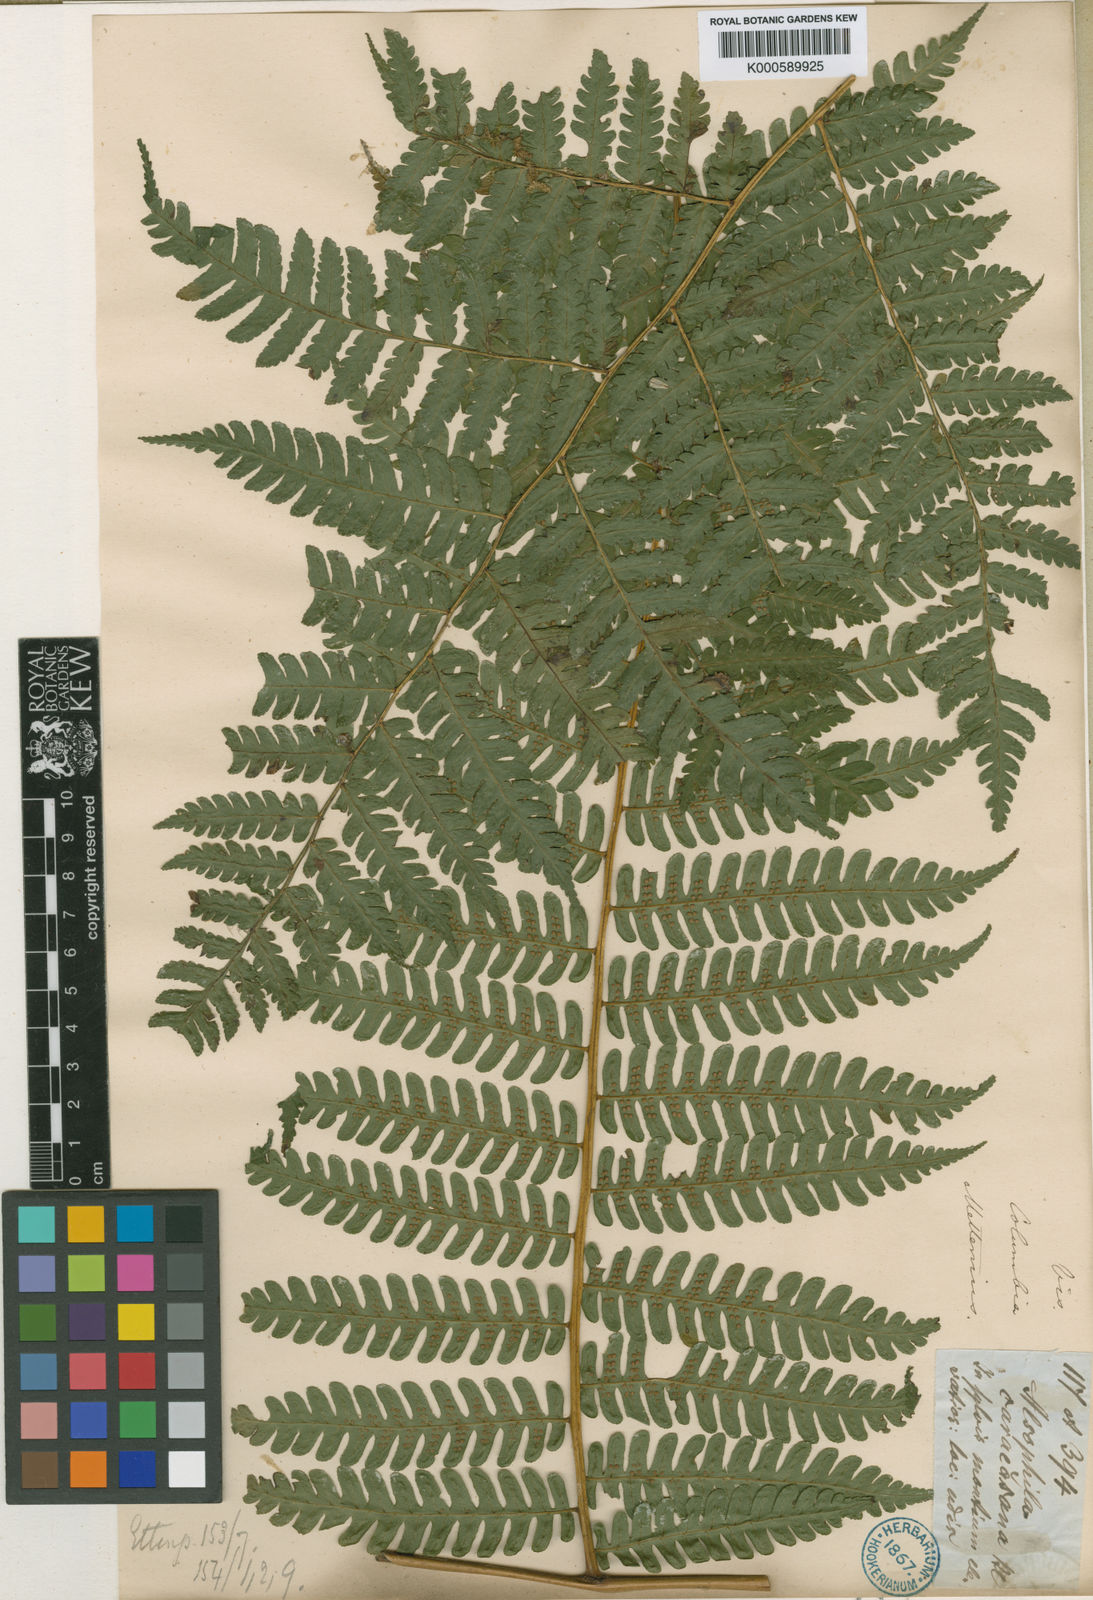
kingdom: Plantae
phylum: Tracheophyta
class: Polypodiopsida
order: Cyatheales
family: Cyatheaceae
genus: Cyathea
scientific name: Cyathea caracasana
